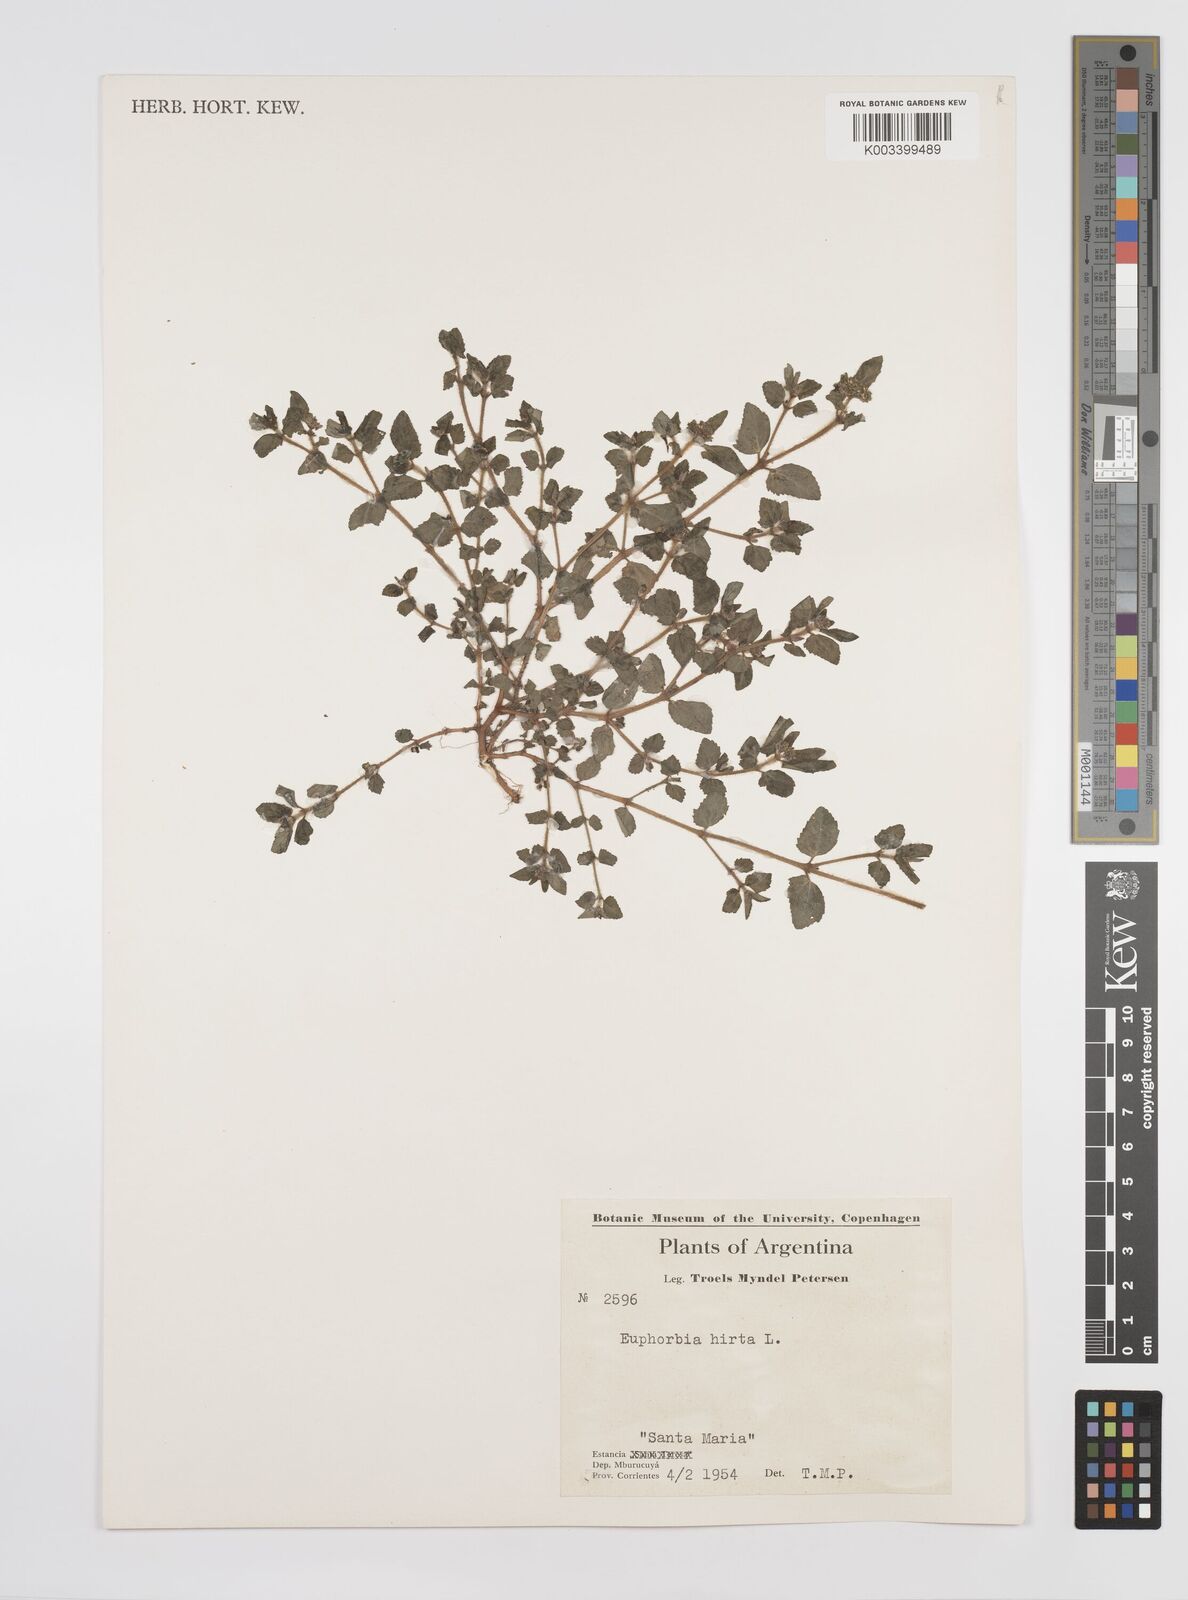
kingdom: Plantae
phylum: Tracheophyta
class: Magnoliopsida
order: Malpighiales
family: Euphorbiaceae
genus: Euphorbia
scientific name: Euphorbia hirta
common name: Pillpod sandmat
